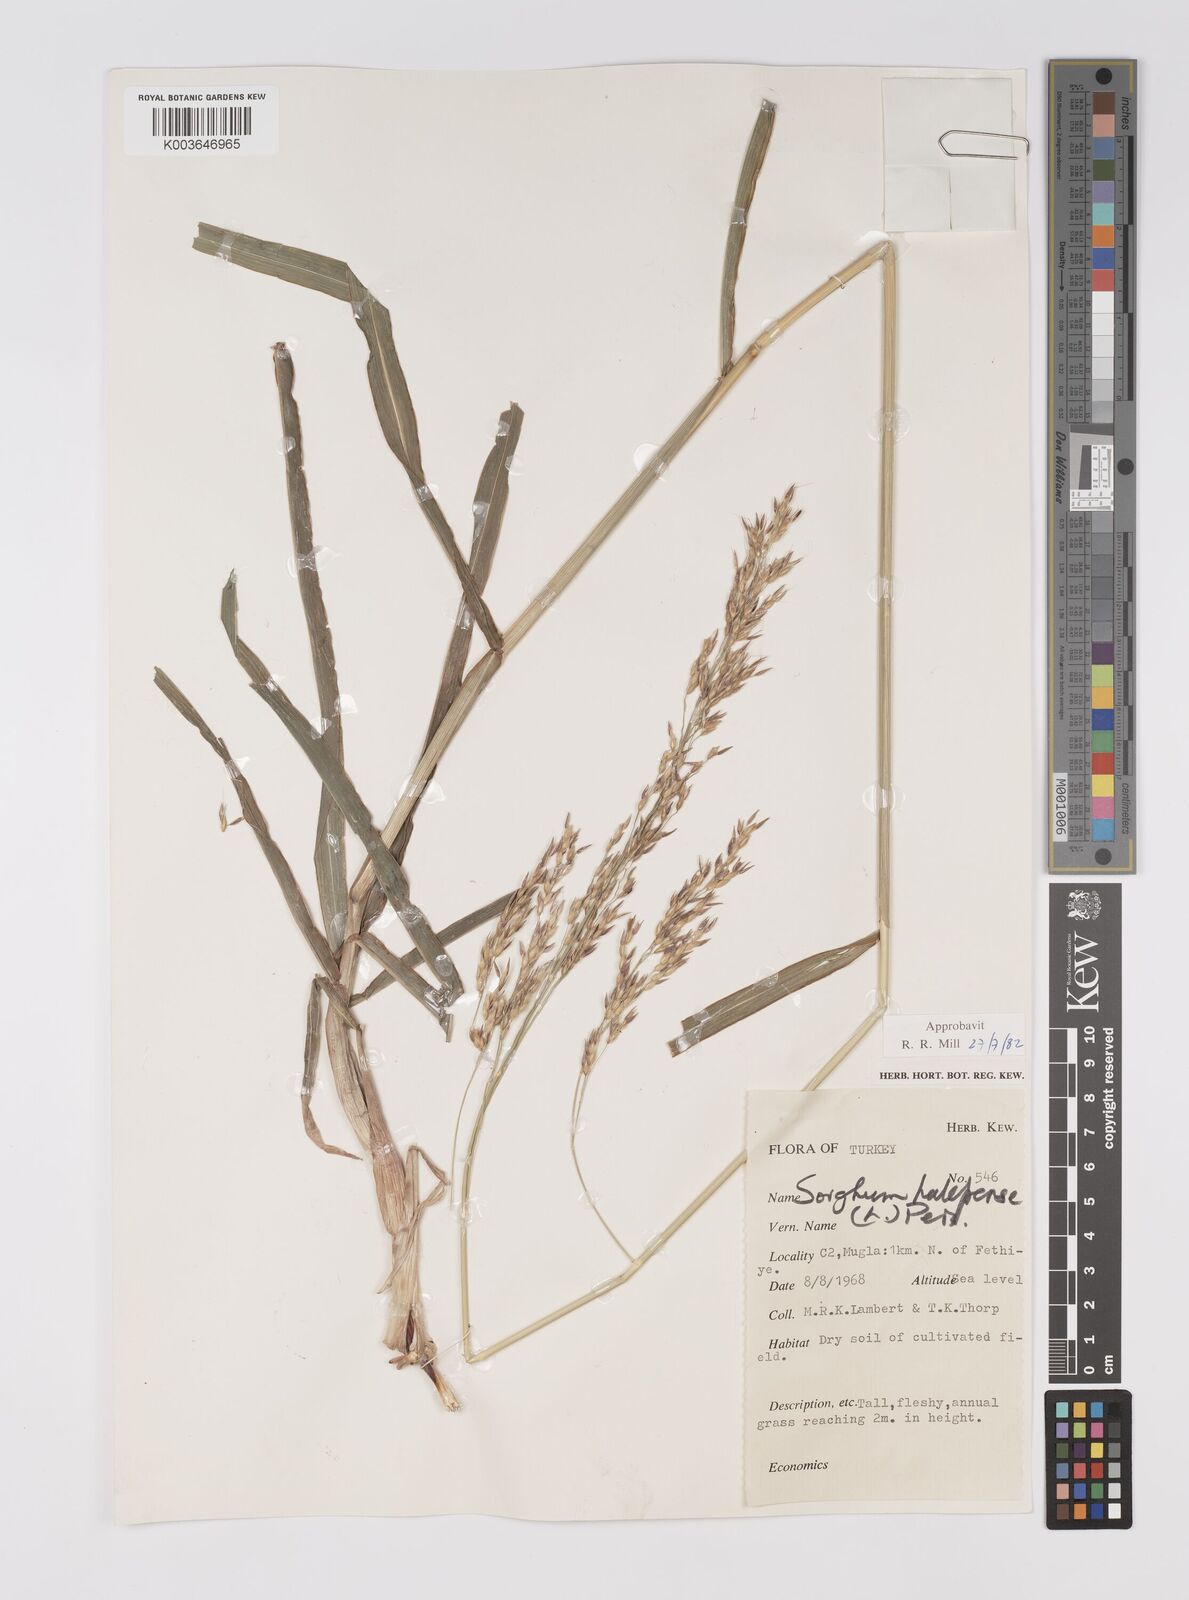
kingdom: Plantae
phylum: Tracheophyta
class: Liliopsida
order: Poales
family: Poaceae
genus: Sorghum
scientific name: Sorghum halepense
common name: Johnson-grass
